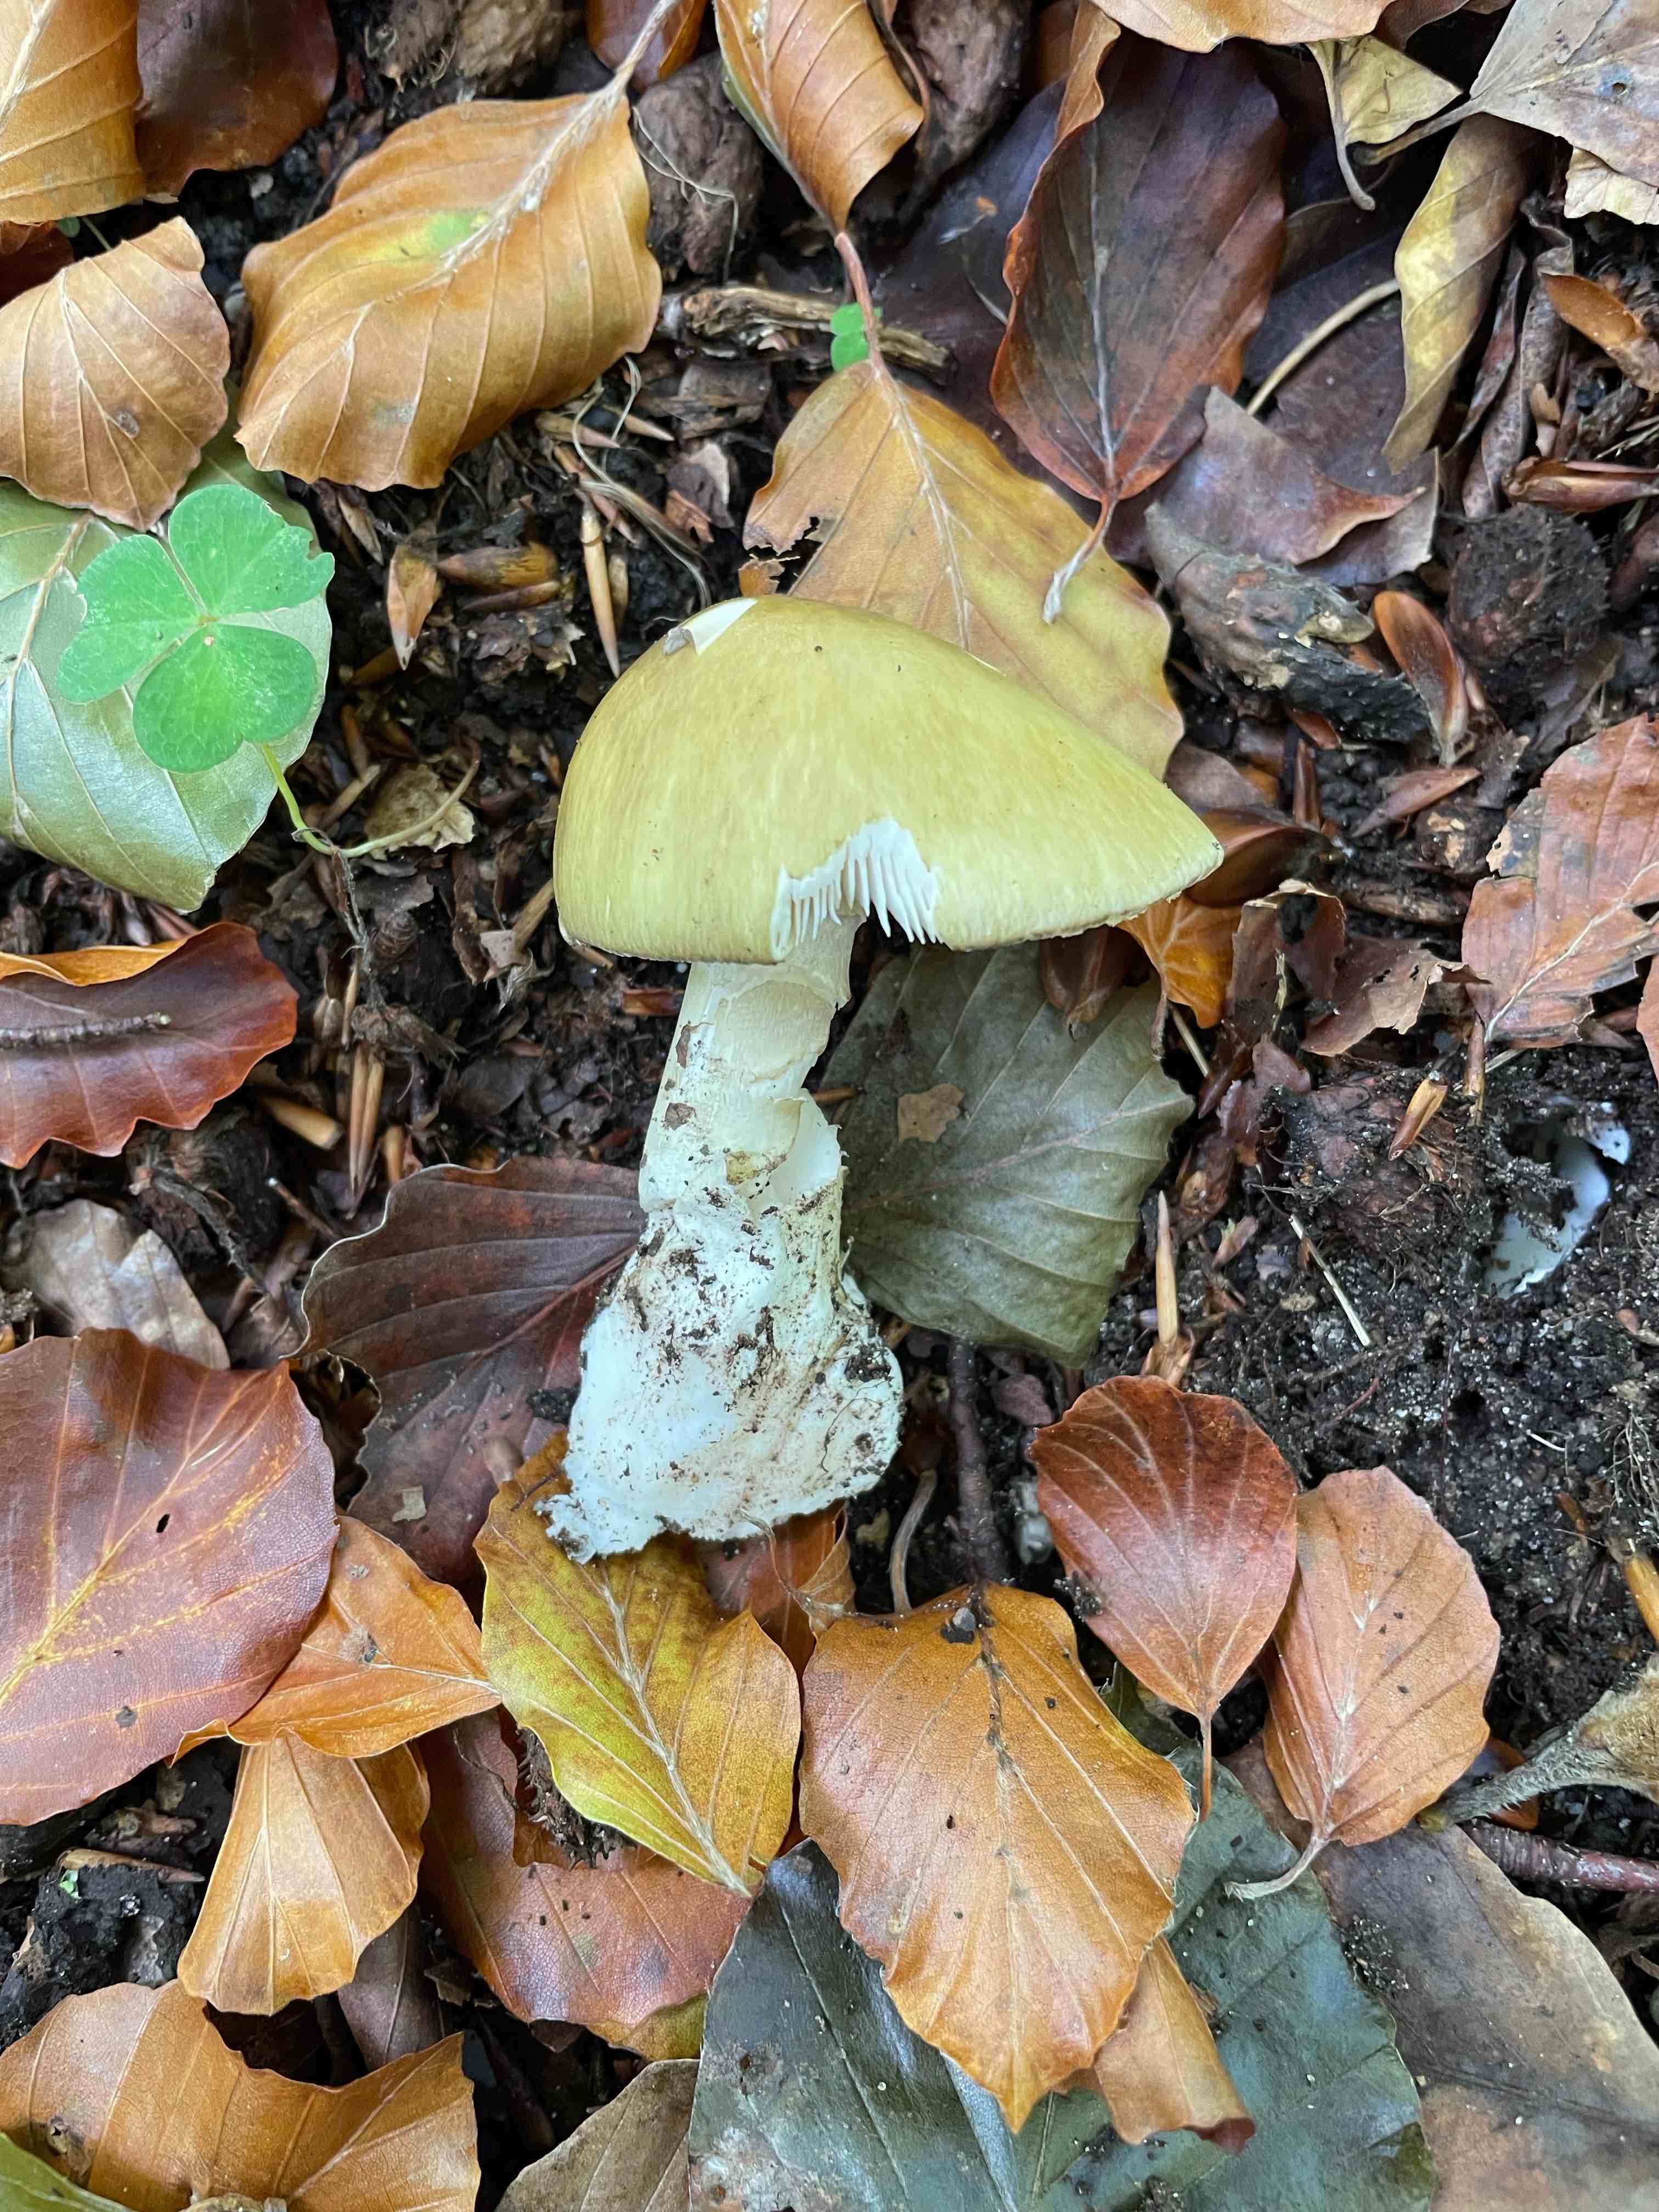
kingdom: Fungi
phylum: Basidiomycota
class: Agaricomycetes
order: Agaricales
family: Amanitaceae
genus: Amanita
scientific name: Amanita phalloides
